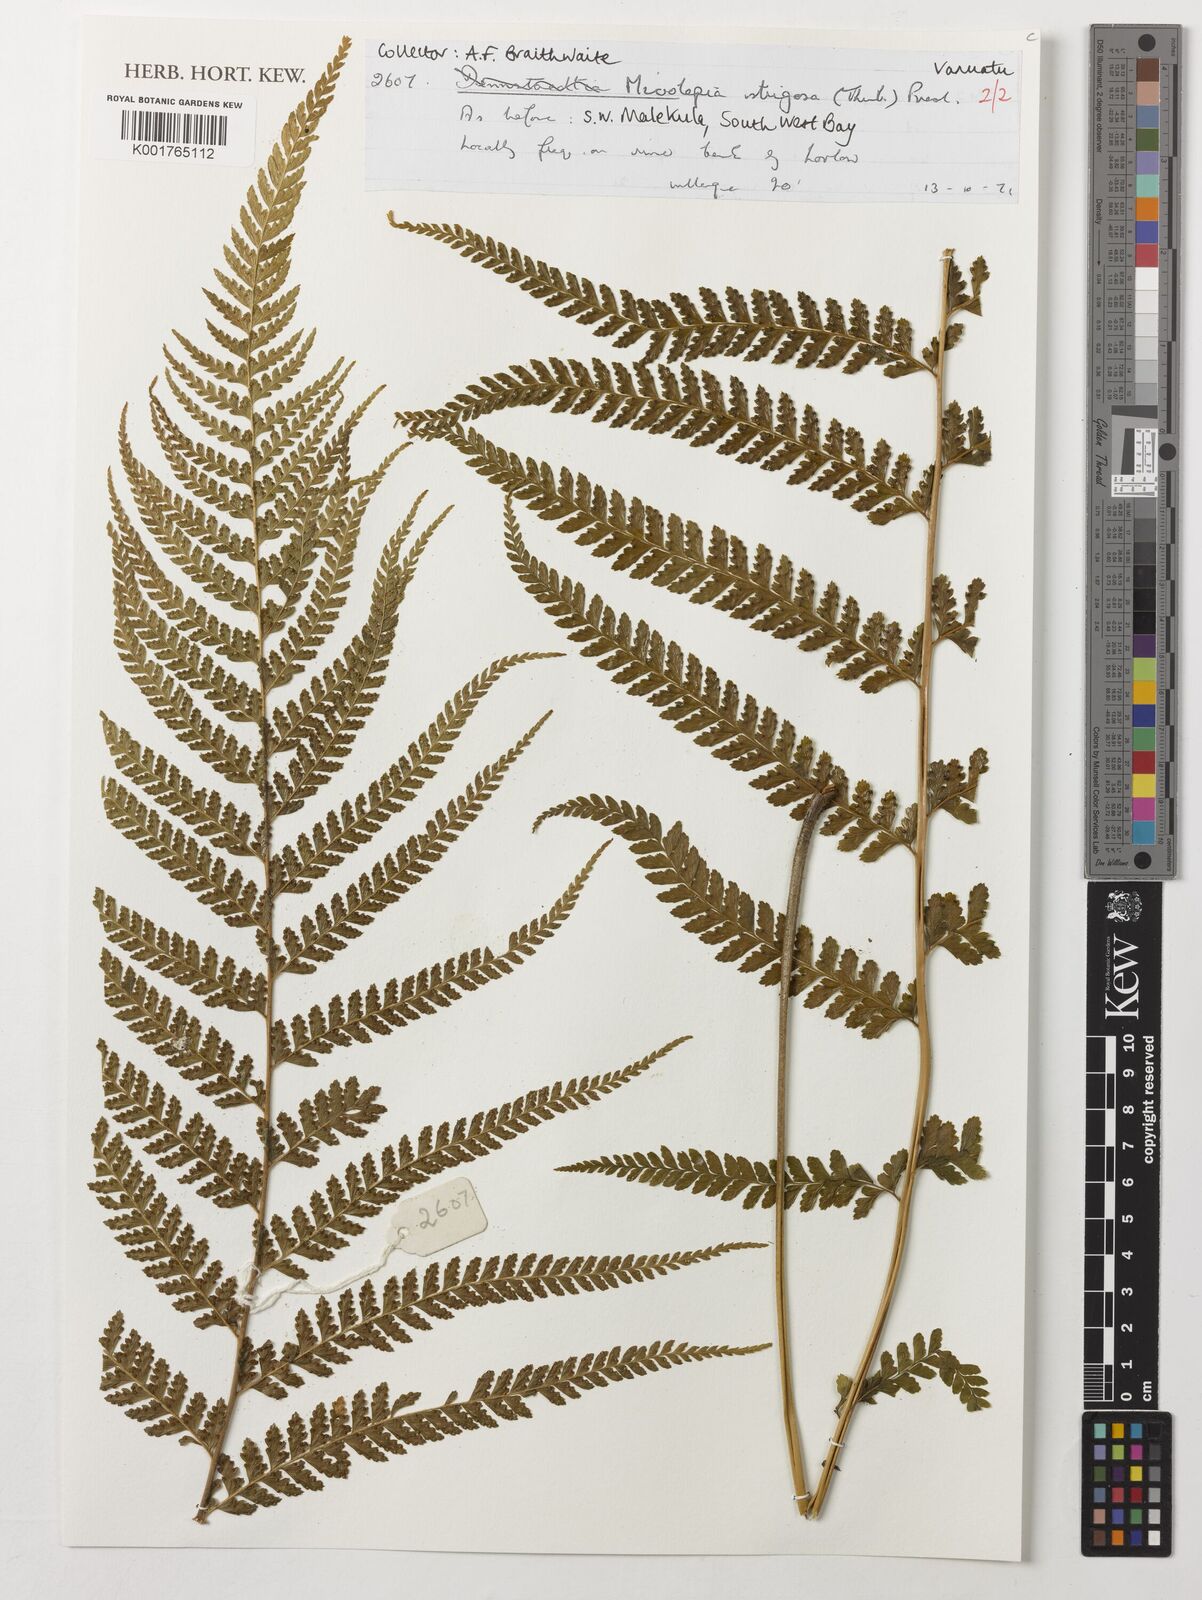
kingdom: Plantae
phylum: Tracheophyta
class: Polypodiopsida
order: Polypodiales
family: Dennstaedtiaceae
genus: Microlepia
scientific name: Microlepia strigosa
